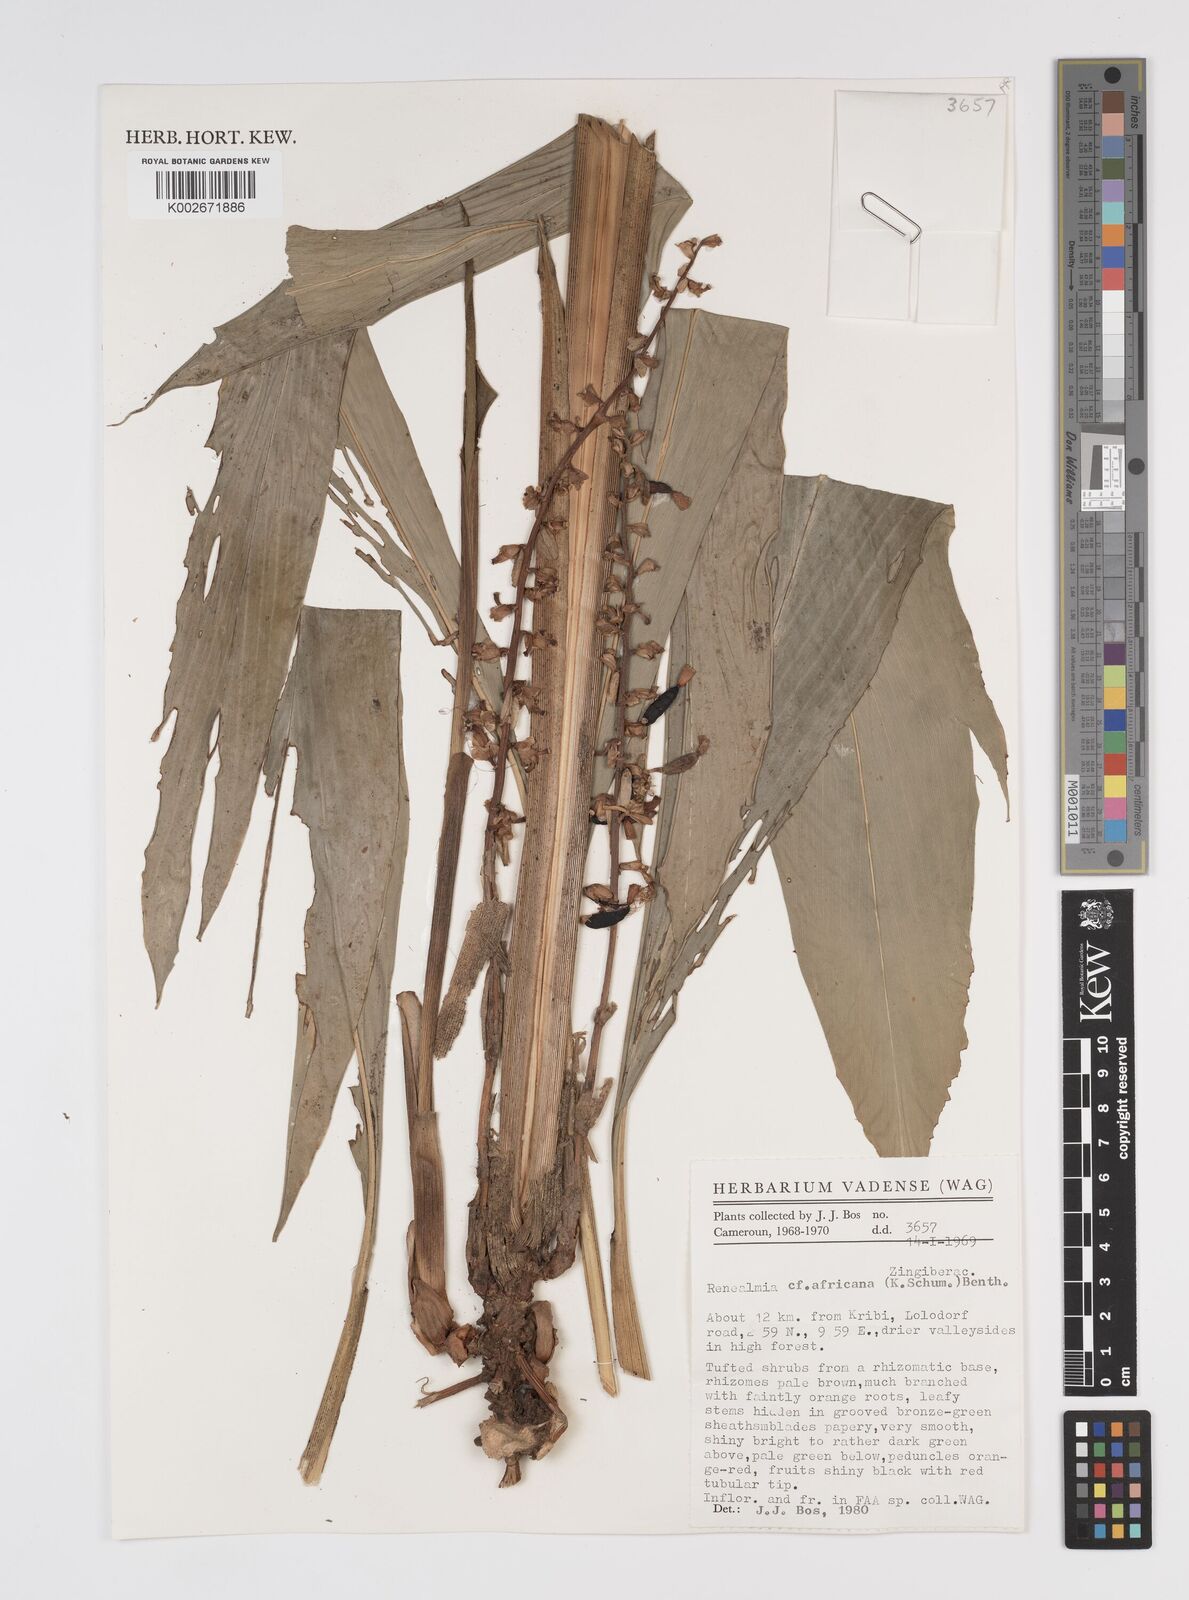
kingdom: Plantae
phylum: Tracheophyta
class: Liliopsida
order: Zingiberales
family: Zingiberaceae
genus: Renealmia
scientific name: Renealmia africana
